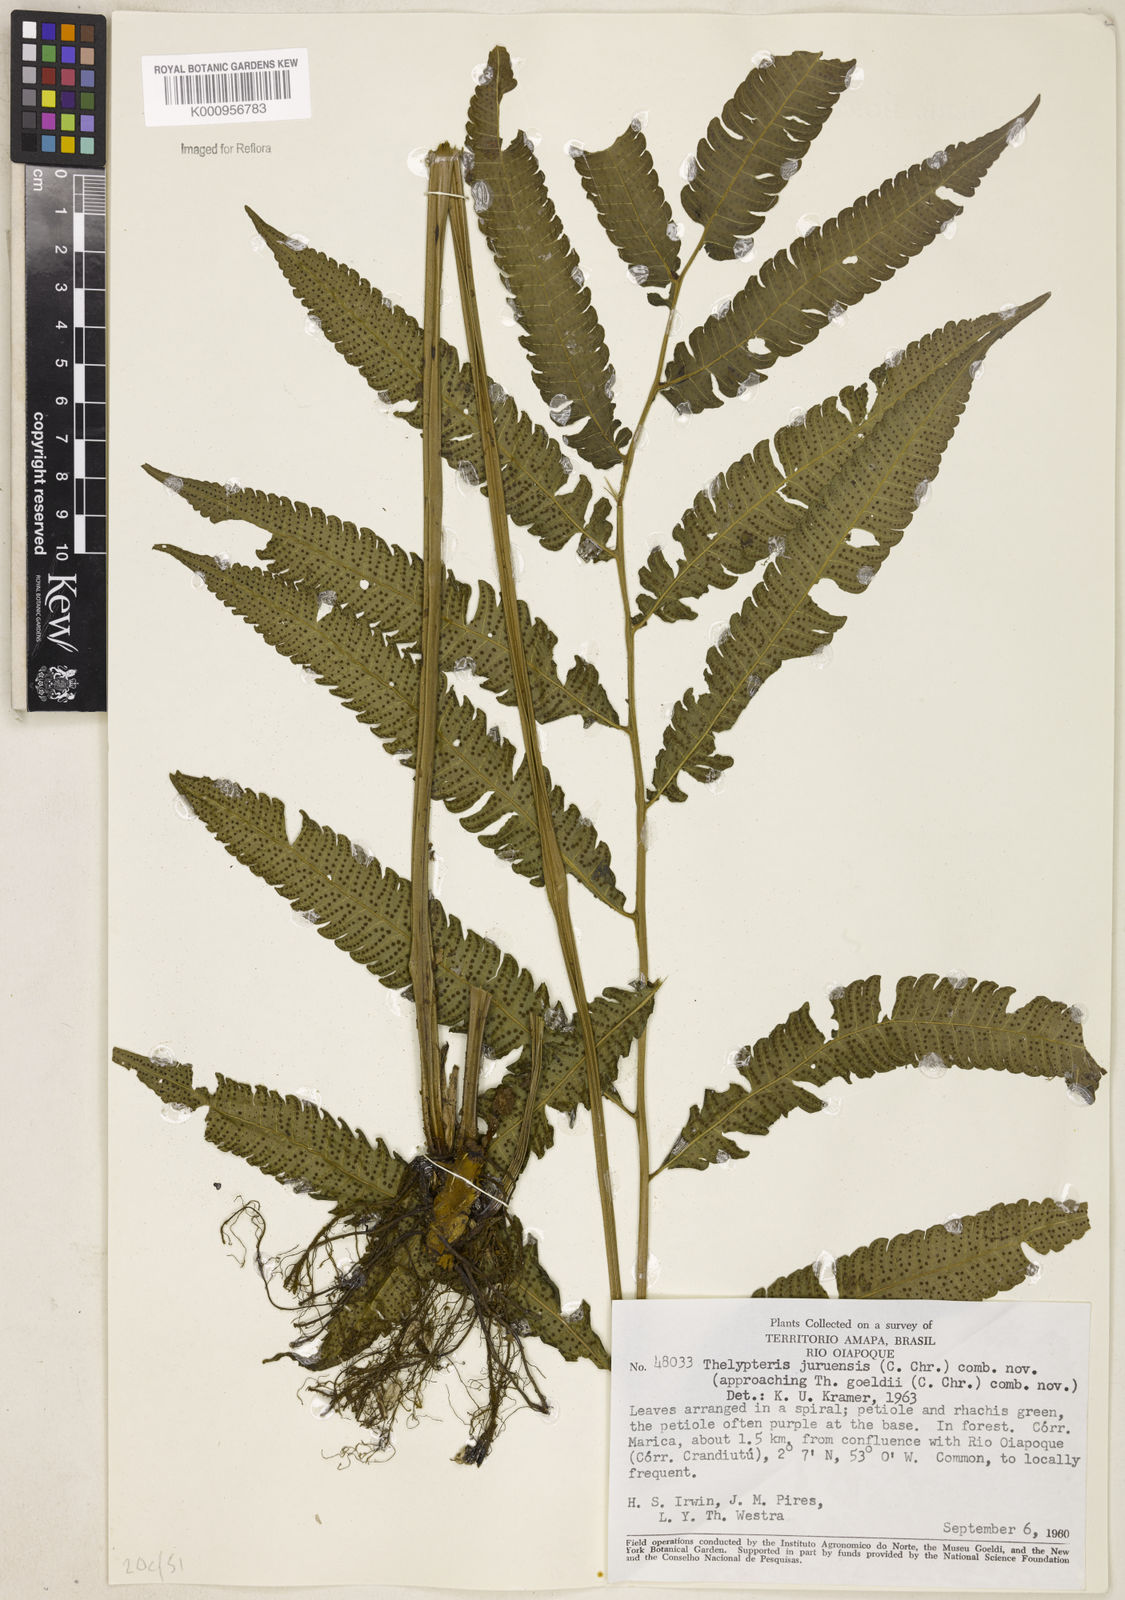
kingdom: Plantae
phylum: Tracheophyta
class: Polypodiopsida
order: Polypodiales
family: Thelypteridaceae
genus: Goniopteris
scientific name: Goniopteris juruensis
